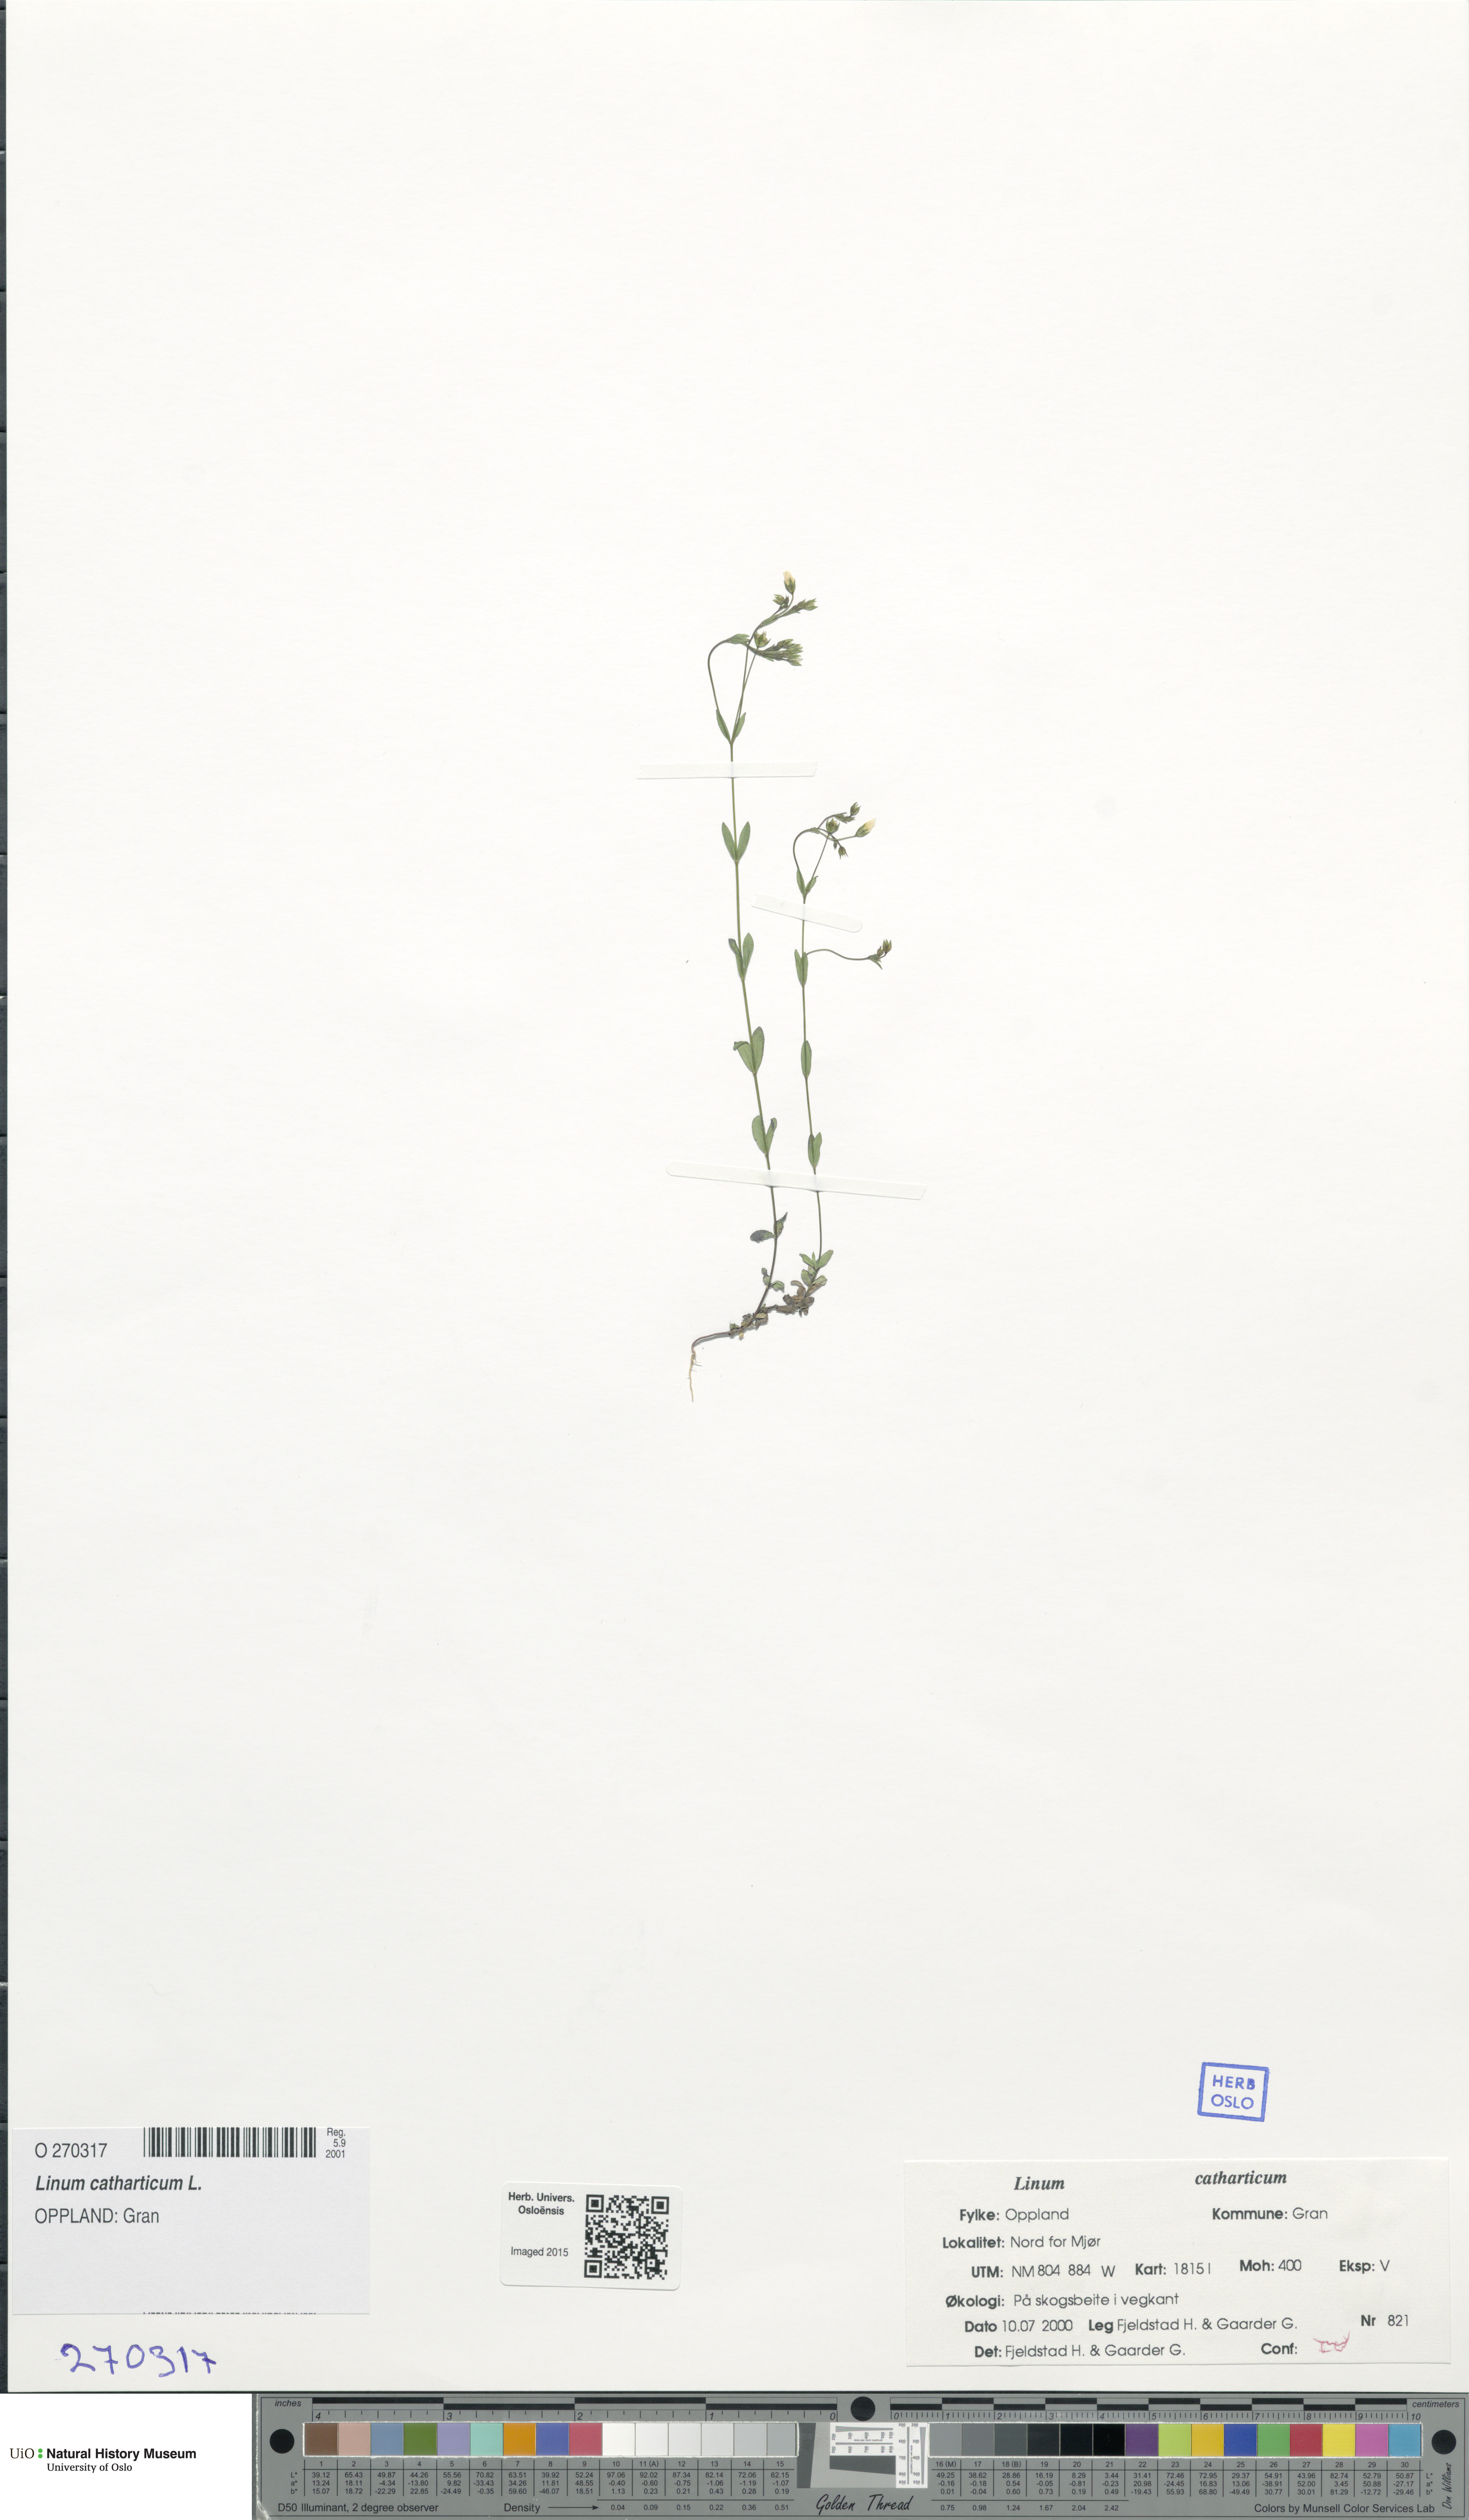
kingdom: Plantae
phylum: Tracheophyta
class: Magnoliopsida
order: Malpighiales
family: Linaceae
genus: Linum
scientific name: Linum catharticum
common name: Fairy flax
